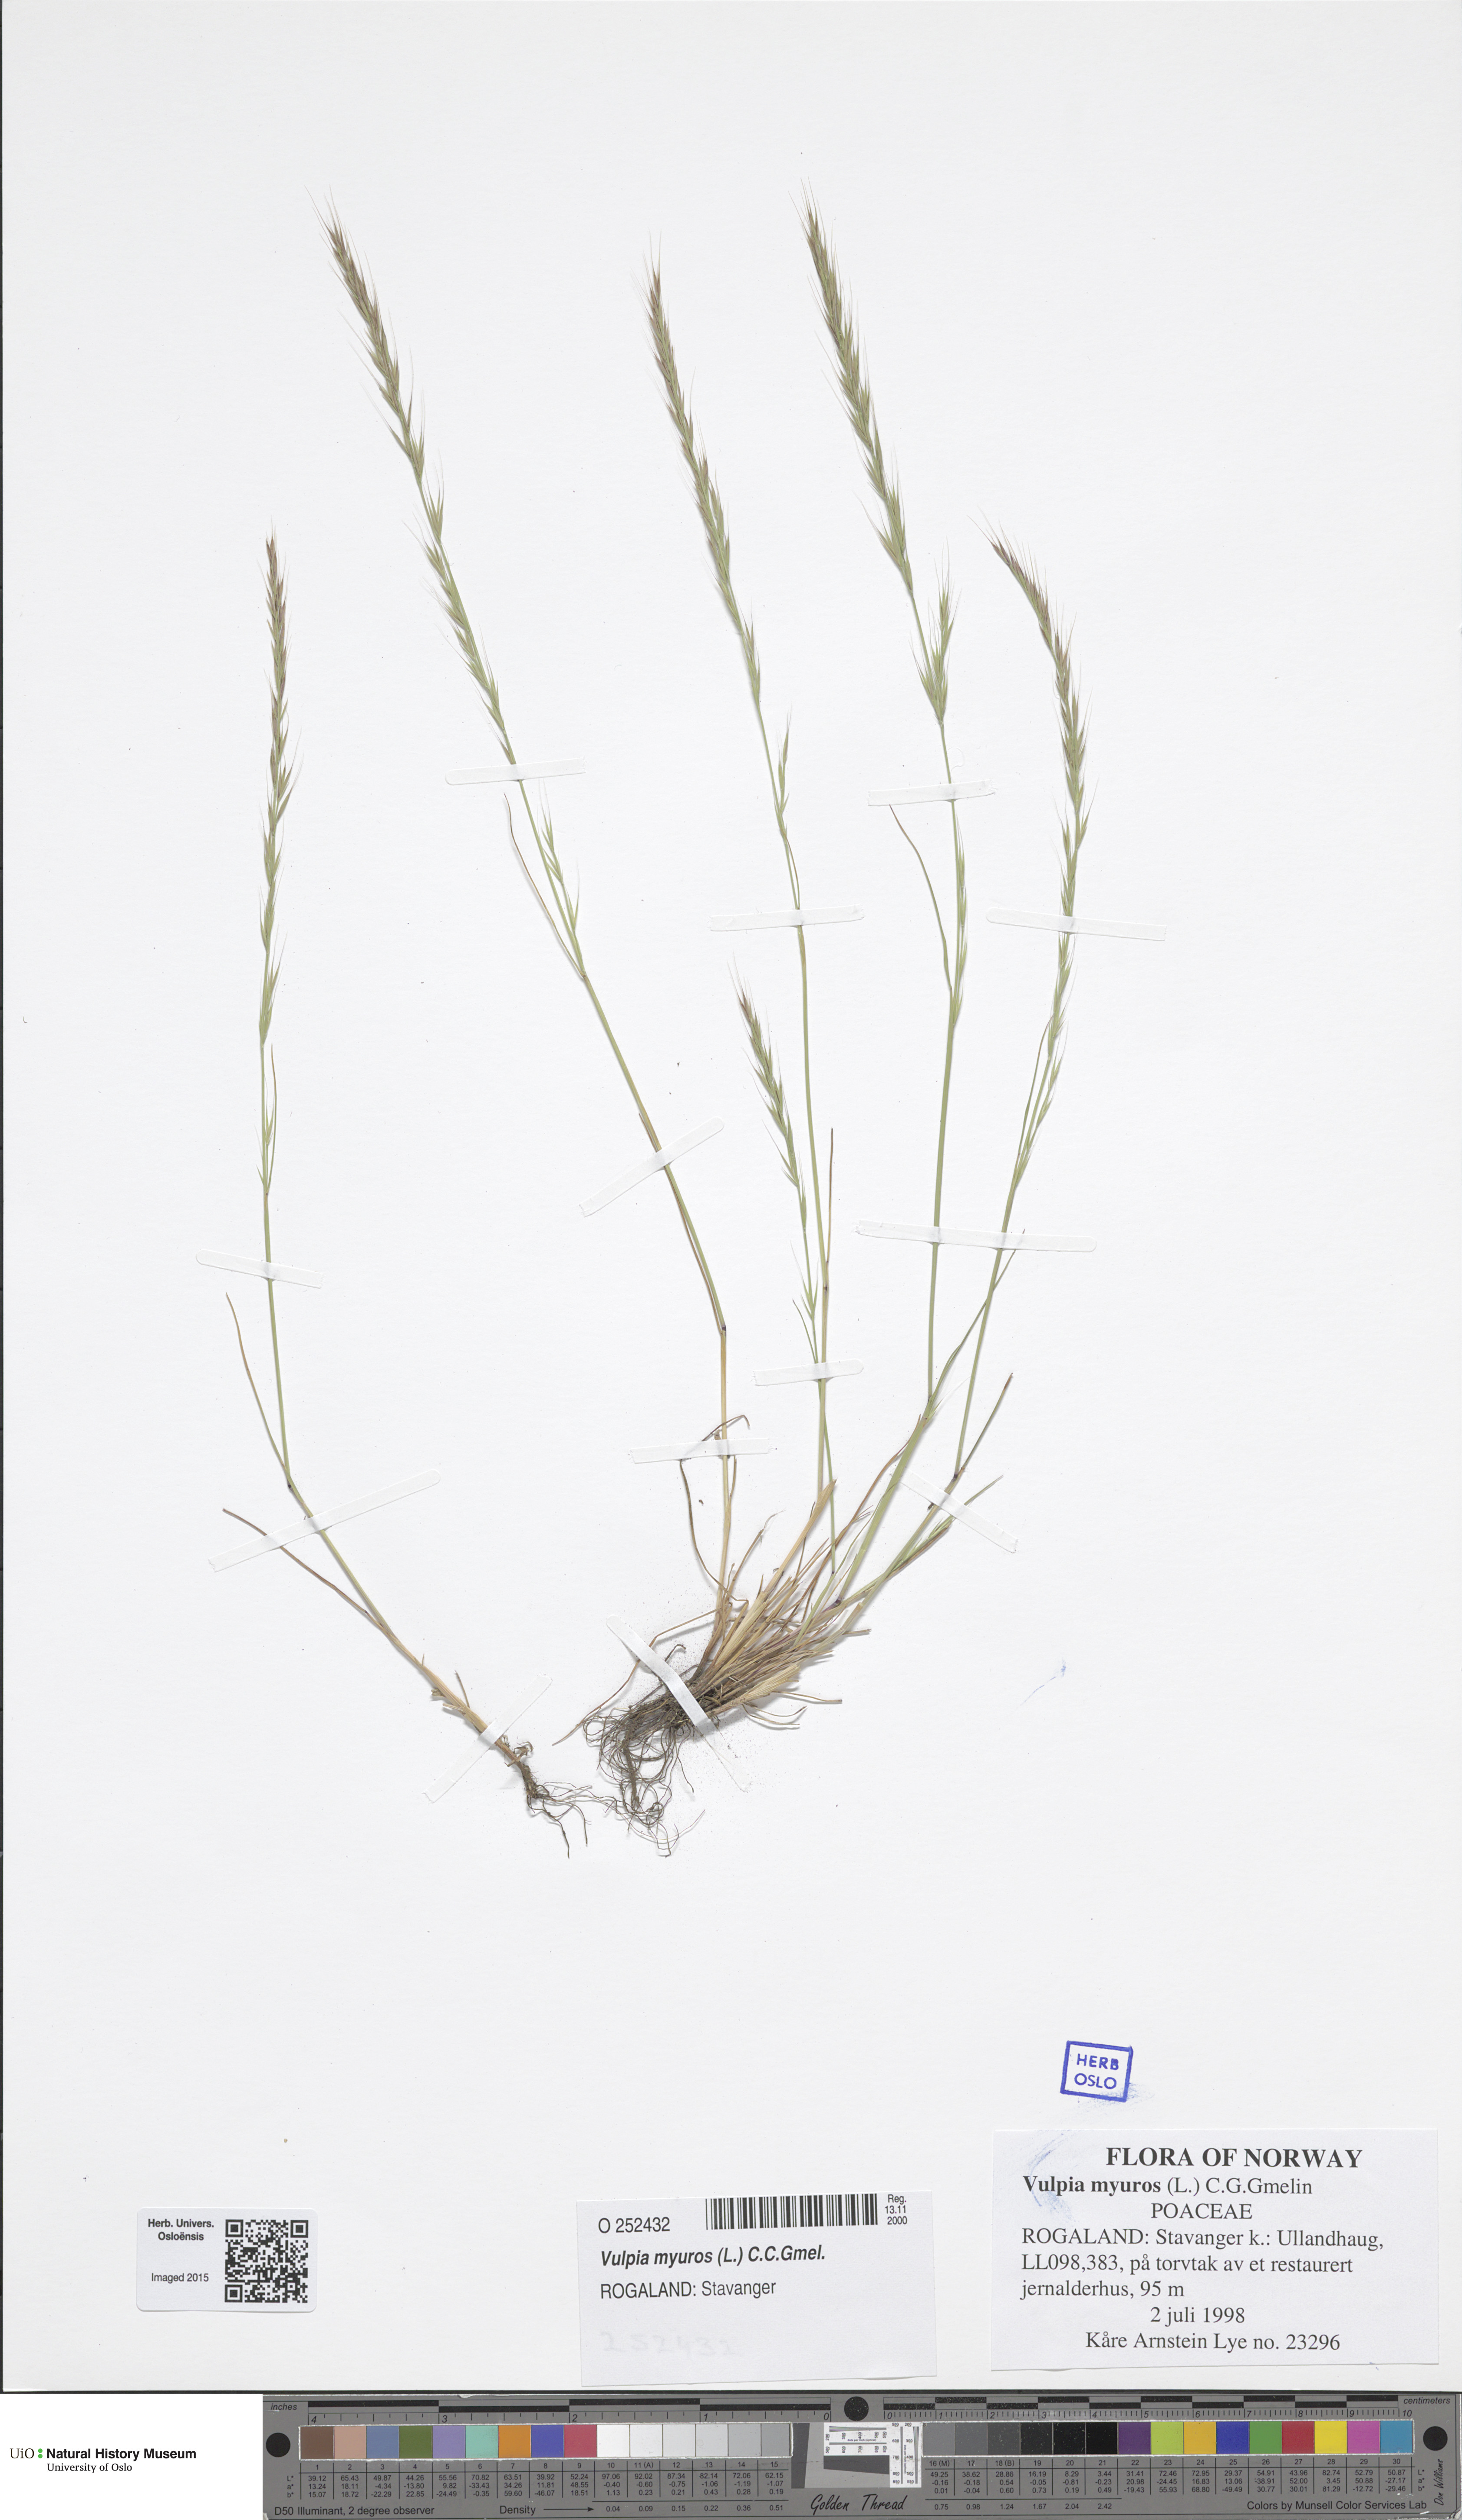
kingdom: Plantae
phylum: Tracheophyta
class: Liliopsida
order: Poales
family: Poaceae
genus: Festuca
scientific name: Festuca myuros
